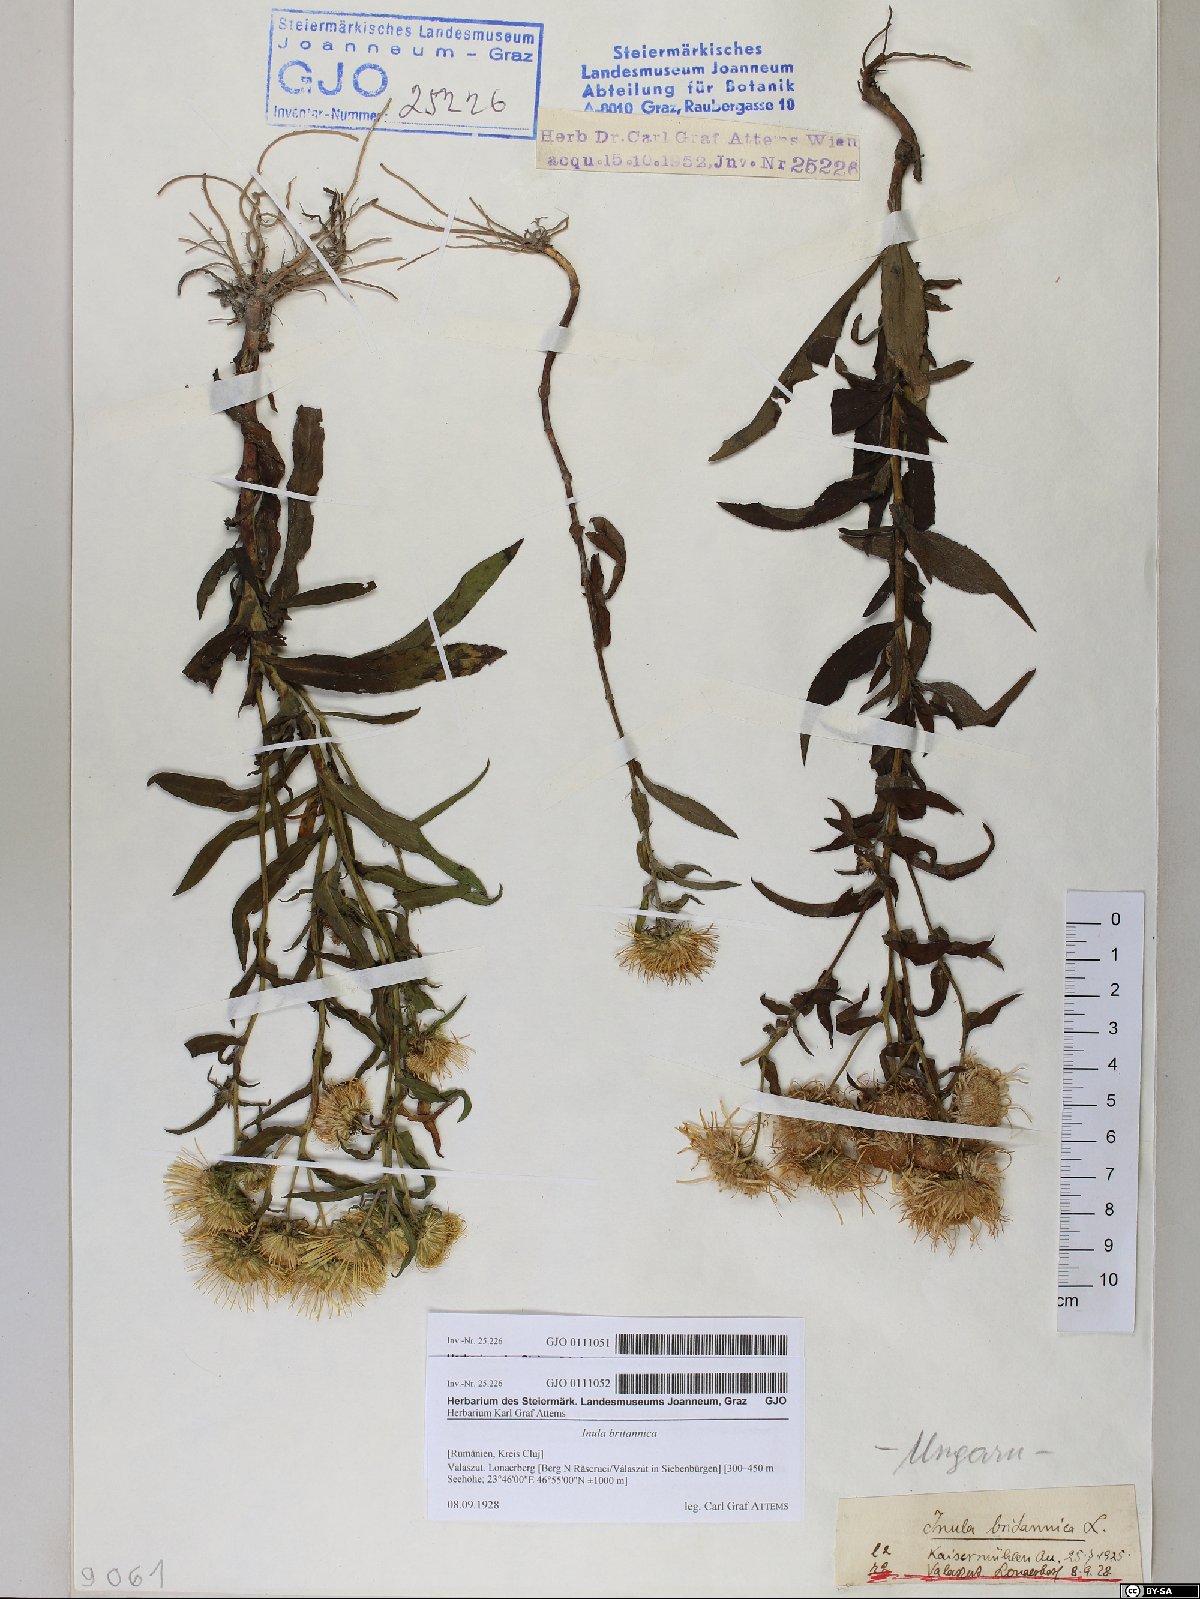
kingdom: Plantae
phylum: Tracheophyta
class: Magnoliopsida
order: Asterales
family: Asteraceae
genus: Pentanema
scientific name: Pentanema britannicum
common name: British elecampane
